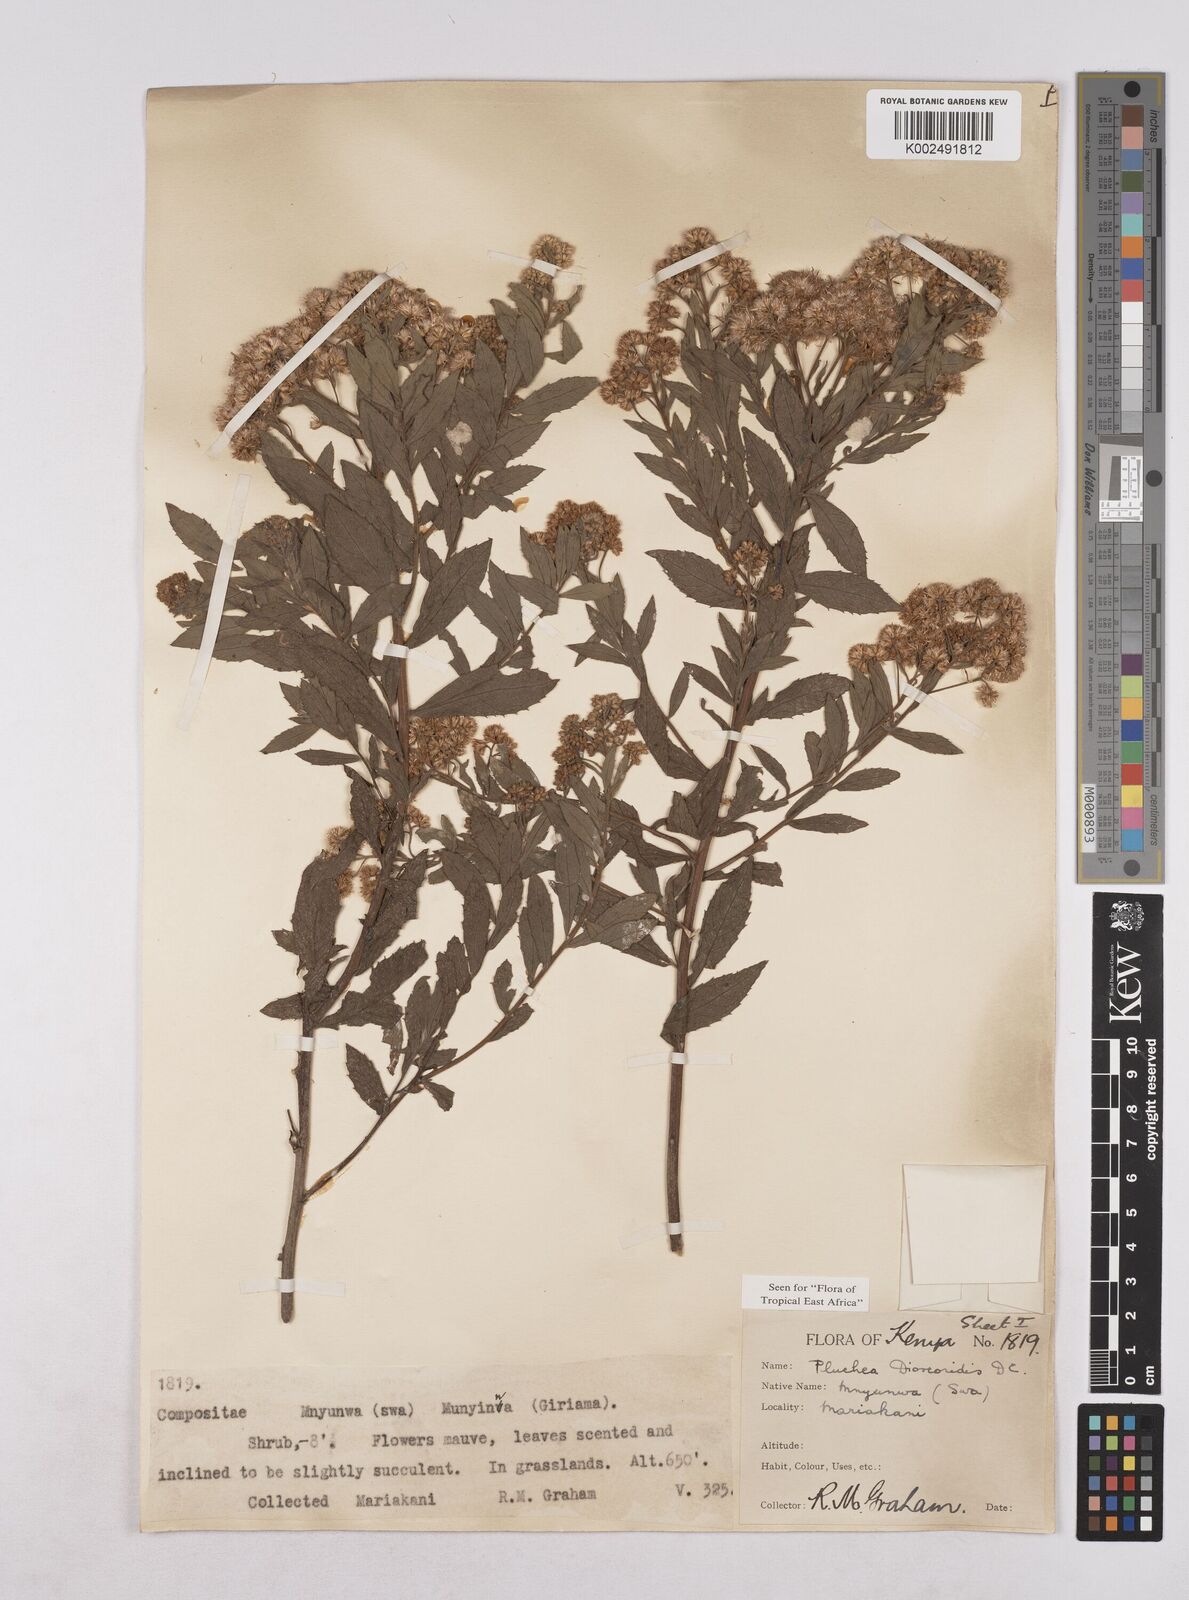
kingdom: Plantae
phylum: Tracheophyta
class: Magnoliopsida
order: Asterales
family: Asteraceae
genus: Pluchea
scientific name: Pluchea dioscoridis
